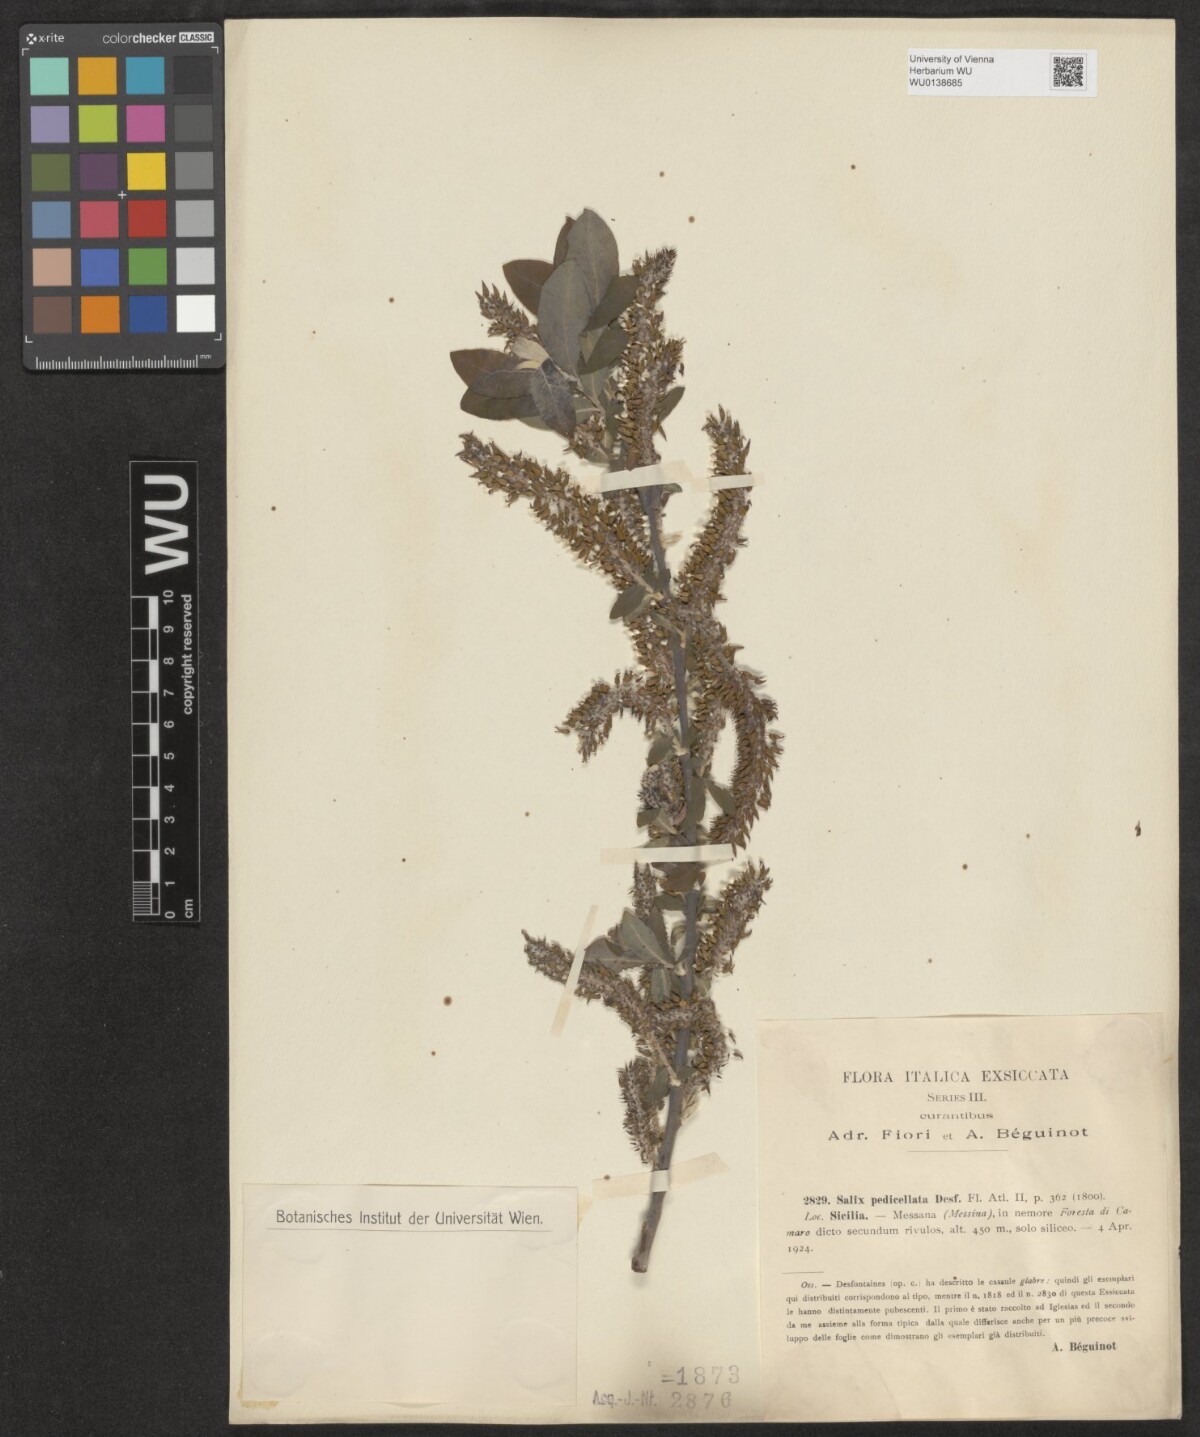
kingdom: Plantae
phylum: Tracheophyta
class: Magnoliopsida
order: Malpighiales
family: Salicaceae
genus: Salix
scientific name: Salix pedicellata
